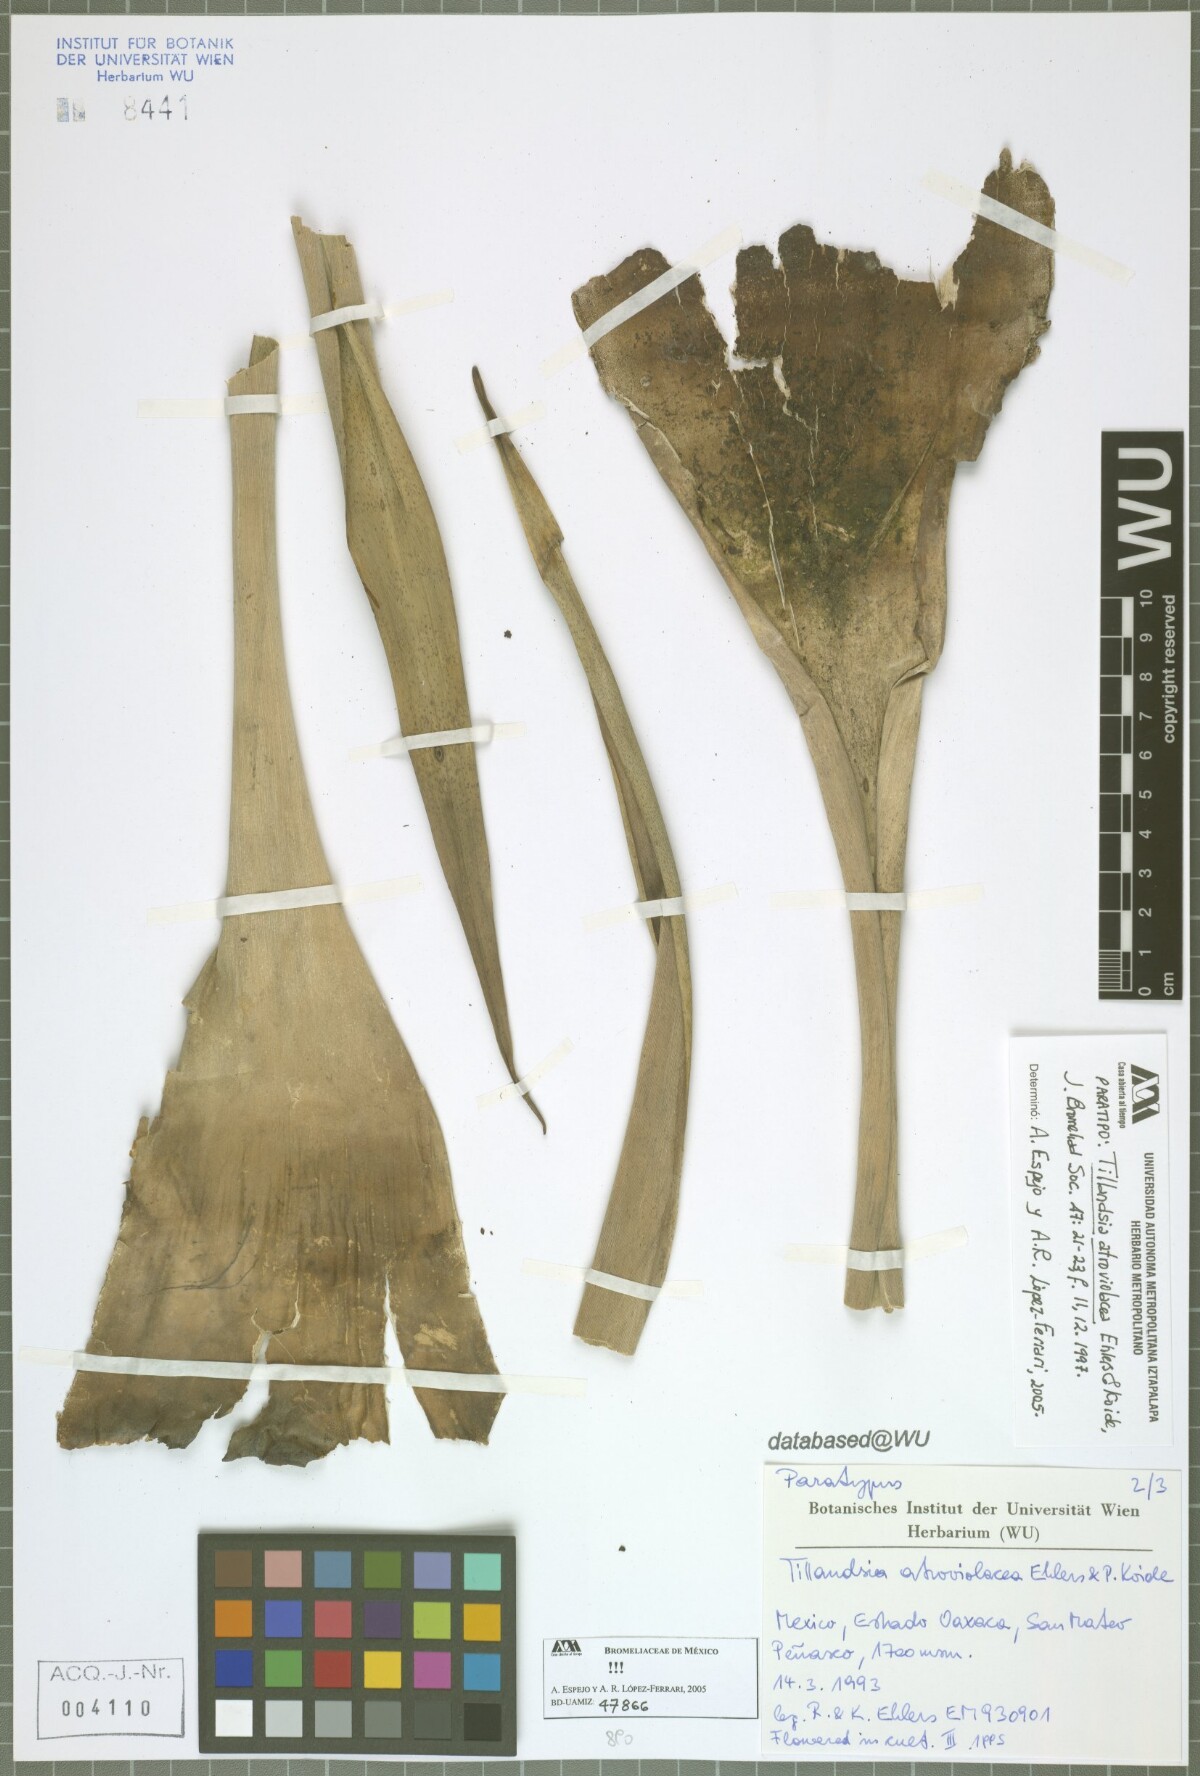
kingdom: Plantae
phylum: Tracheophyta
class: Liliopsida
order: Poales
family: Bromeliaceae
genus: Tillandsia
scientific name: Tillandsia atroviolacea
